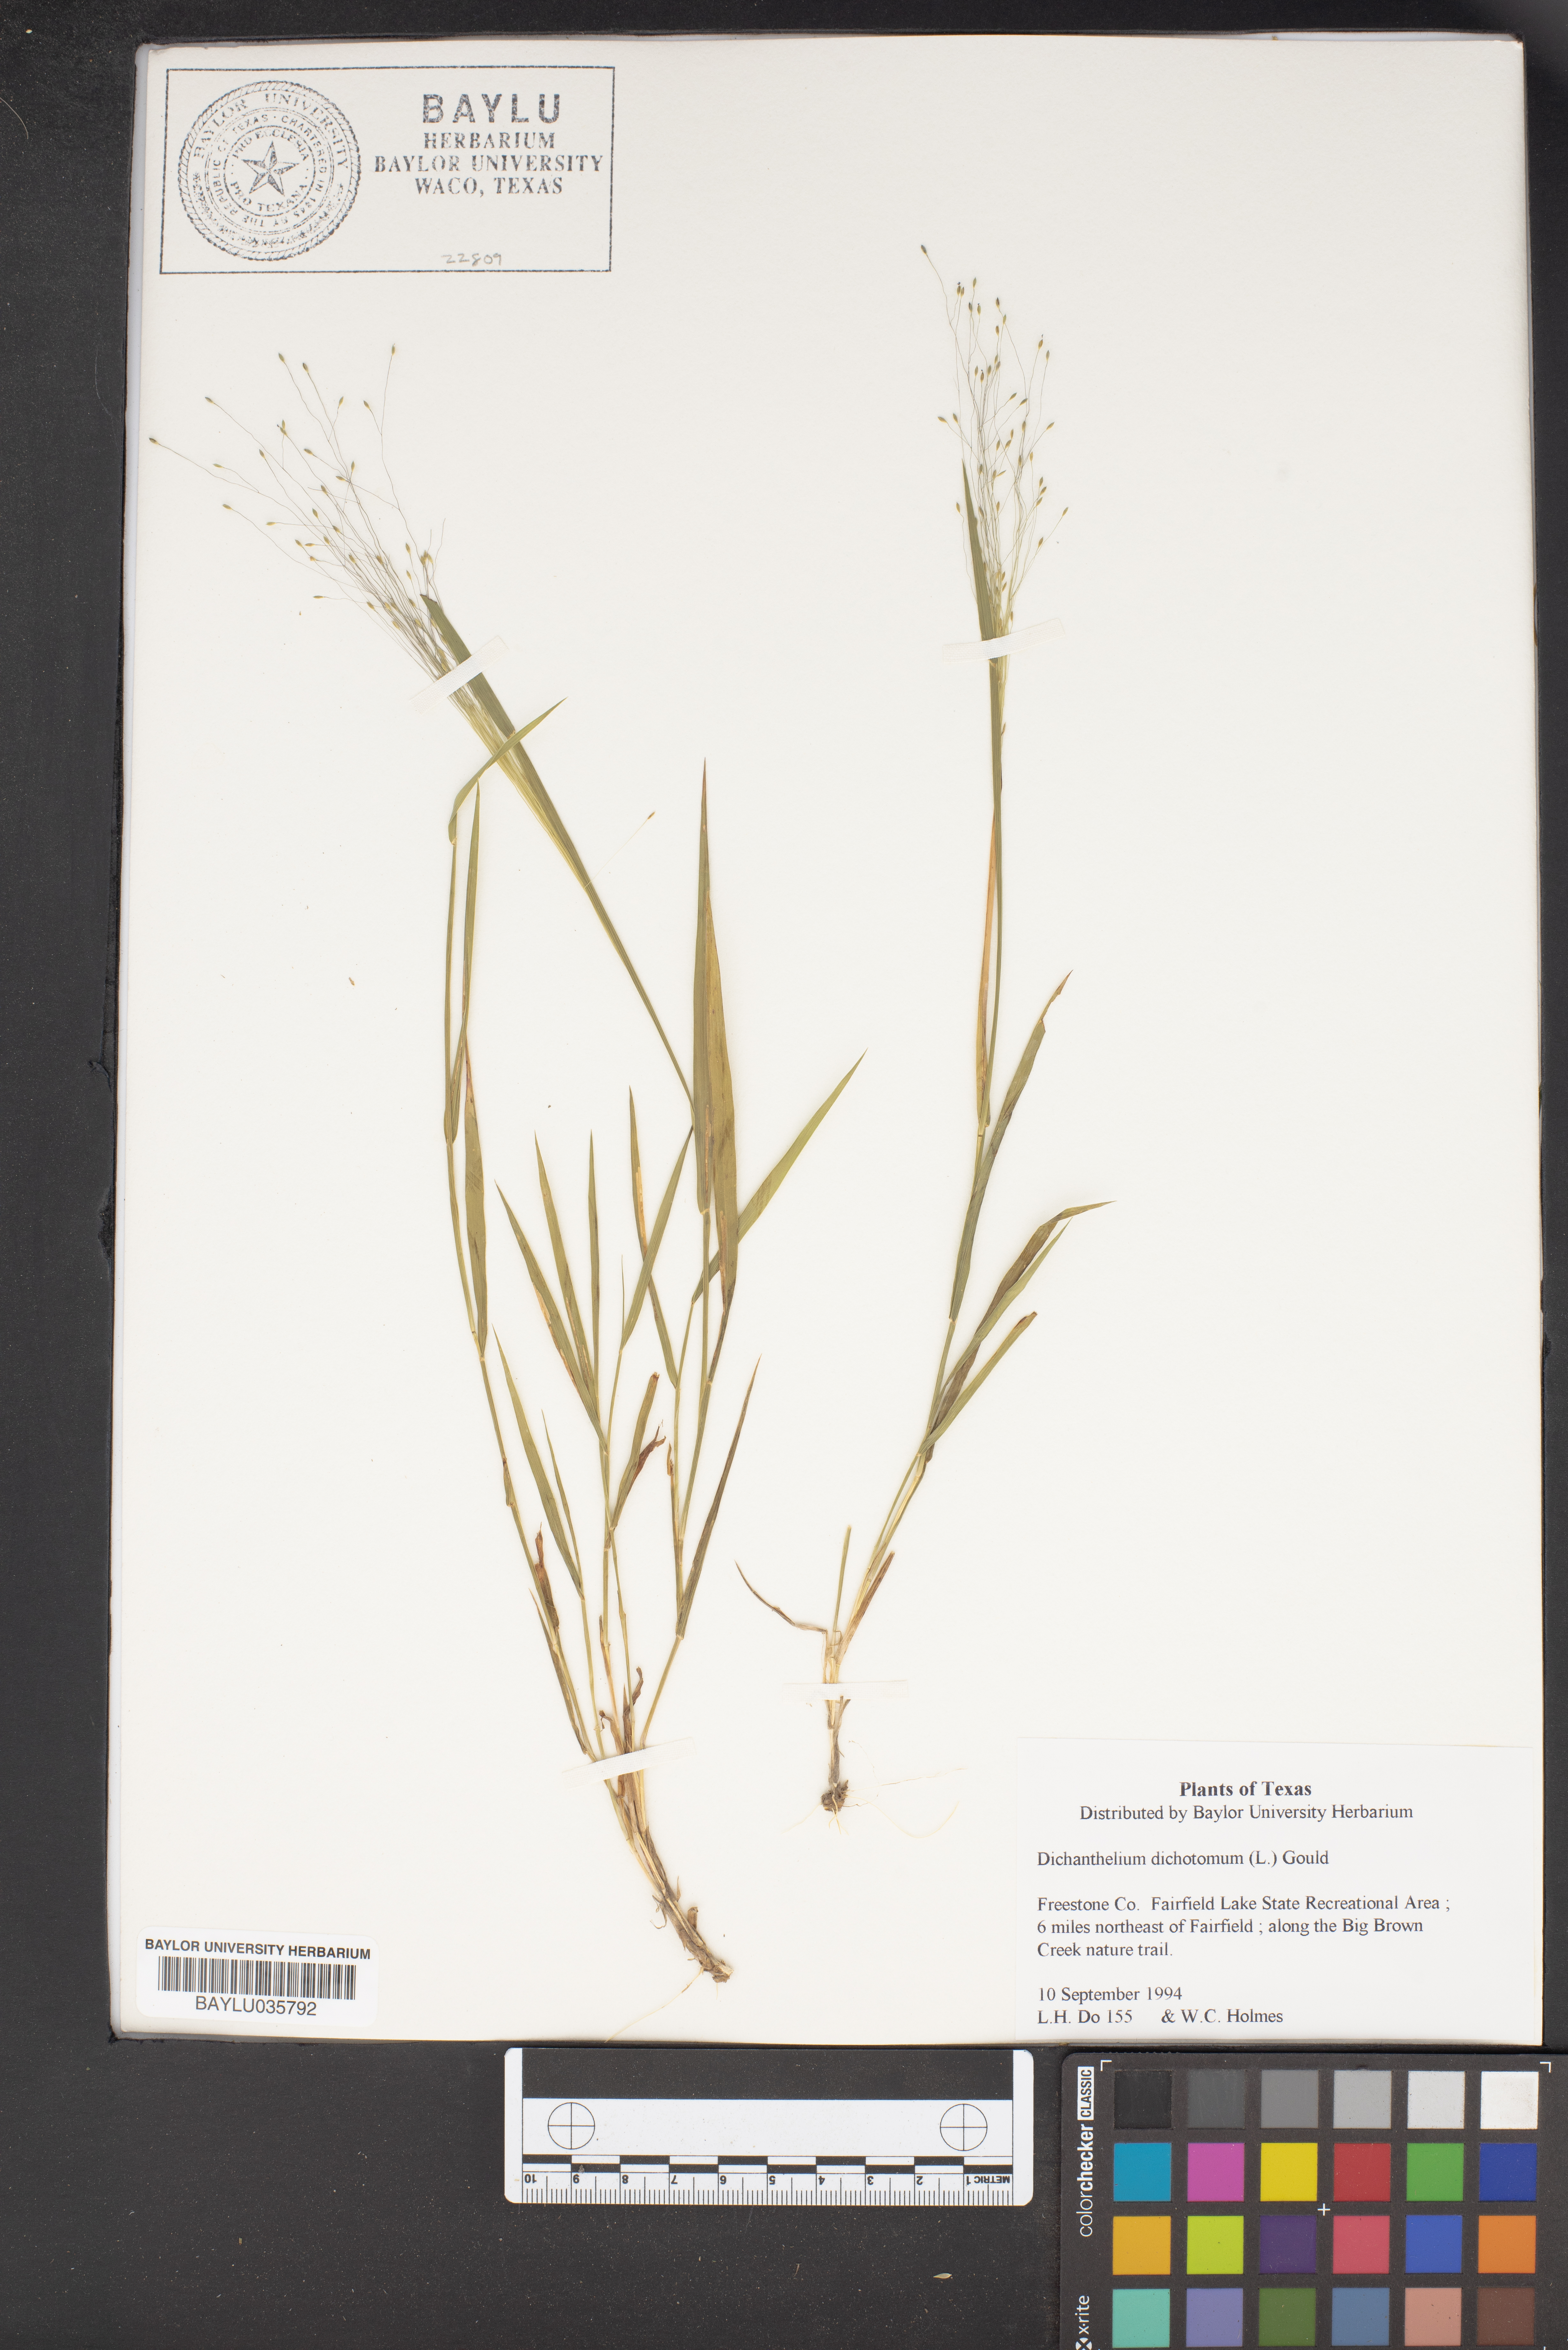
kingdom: Plantae
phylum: Tracheophyta
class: Liliopsida
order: Poales
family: Poaceae
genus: Dichanthelium
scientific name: Dichanthelium dichotomum
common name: Cypress panicgrass
